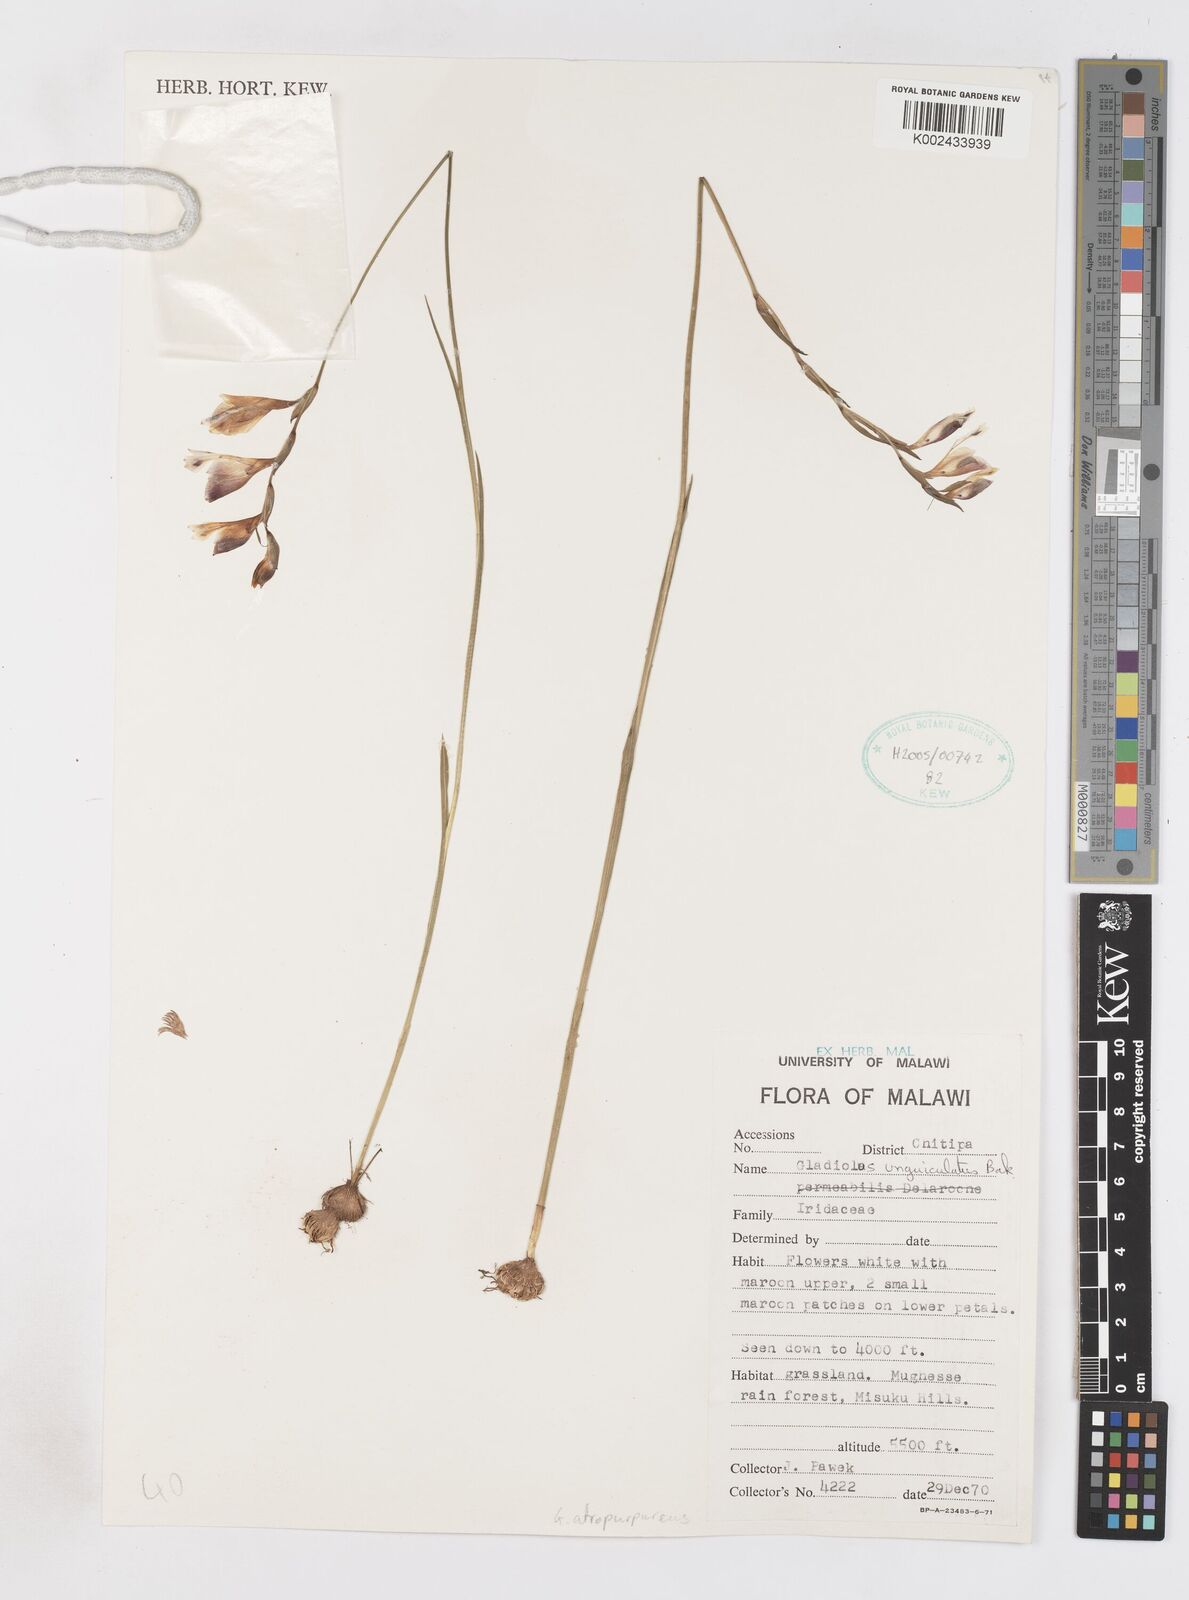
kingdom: Plantae
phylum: Tracheophyta
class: Liliopsida
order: Asparagales
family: Iridaceae
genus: Gladiolus
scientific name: Gladiolus atropurpureus
